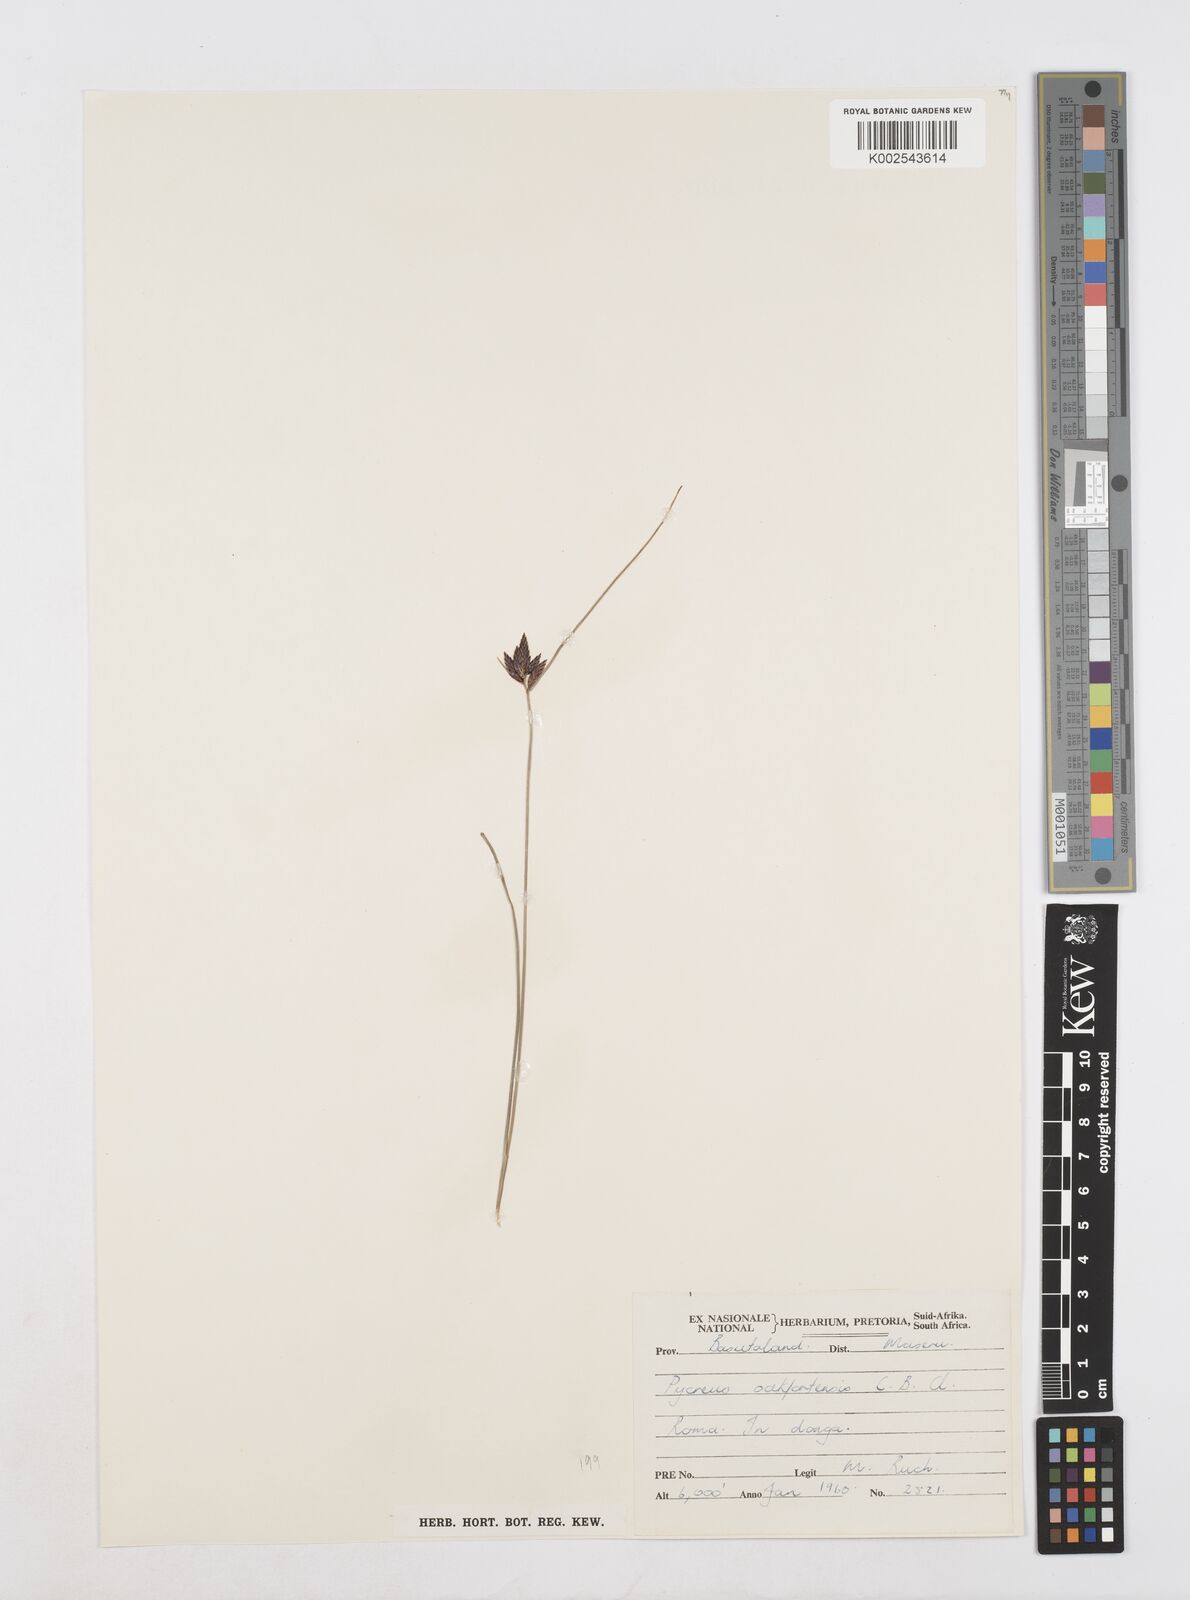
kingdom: Plantae
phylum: Tracheophyta
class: Liliopsida
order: Poales
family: Cyperaceae
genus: Cyperus
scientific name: Cyperus oakfortensis
